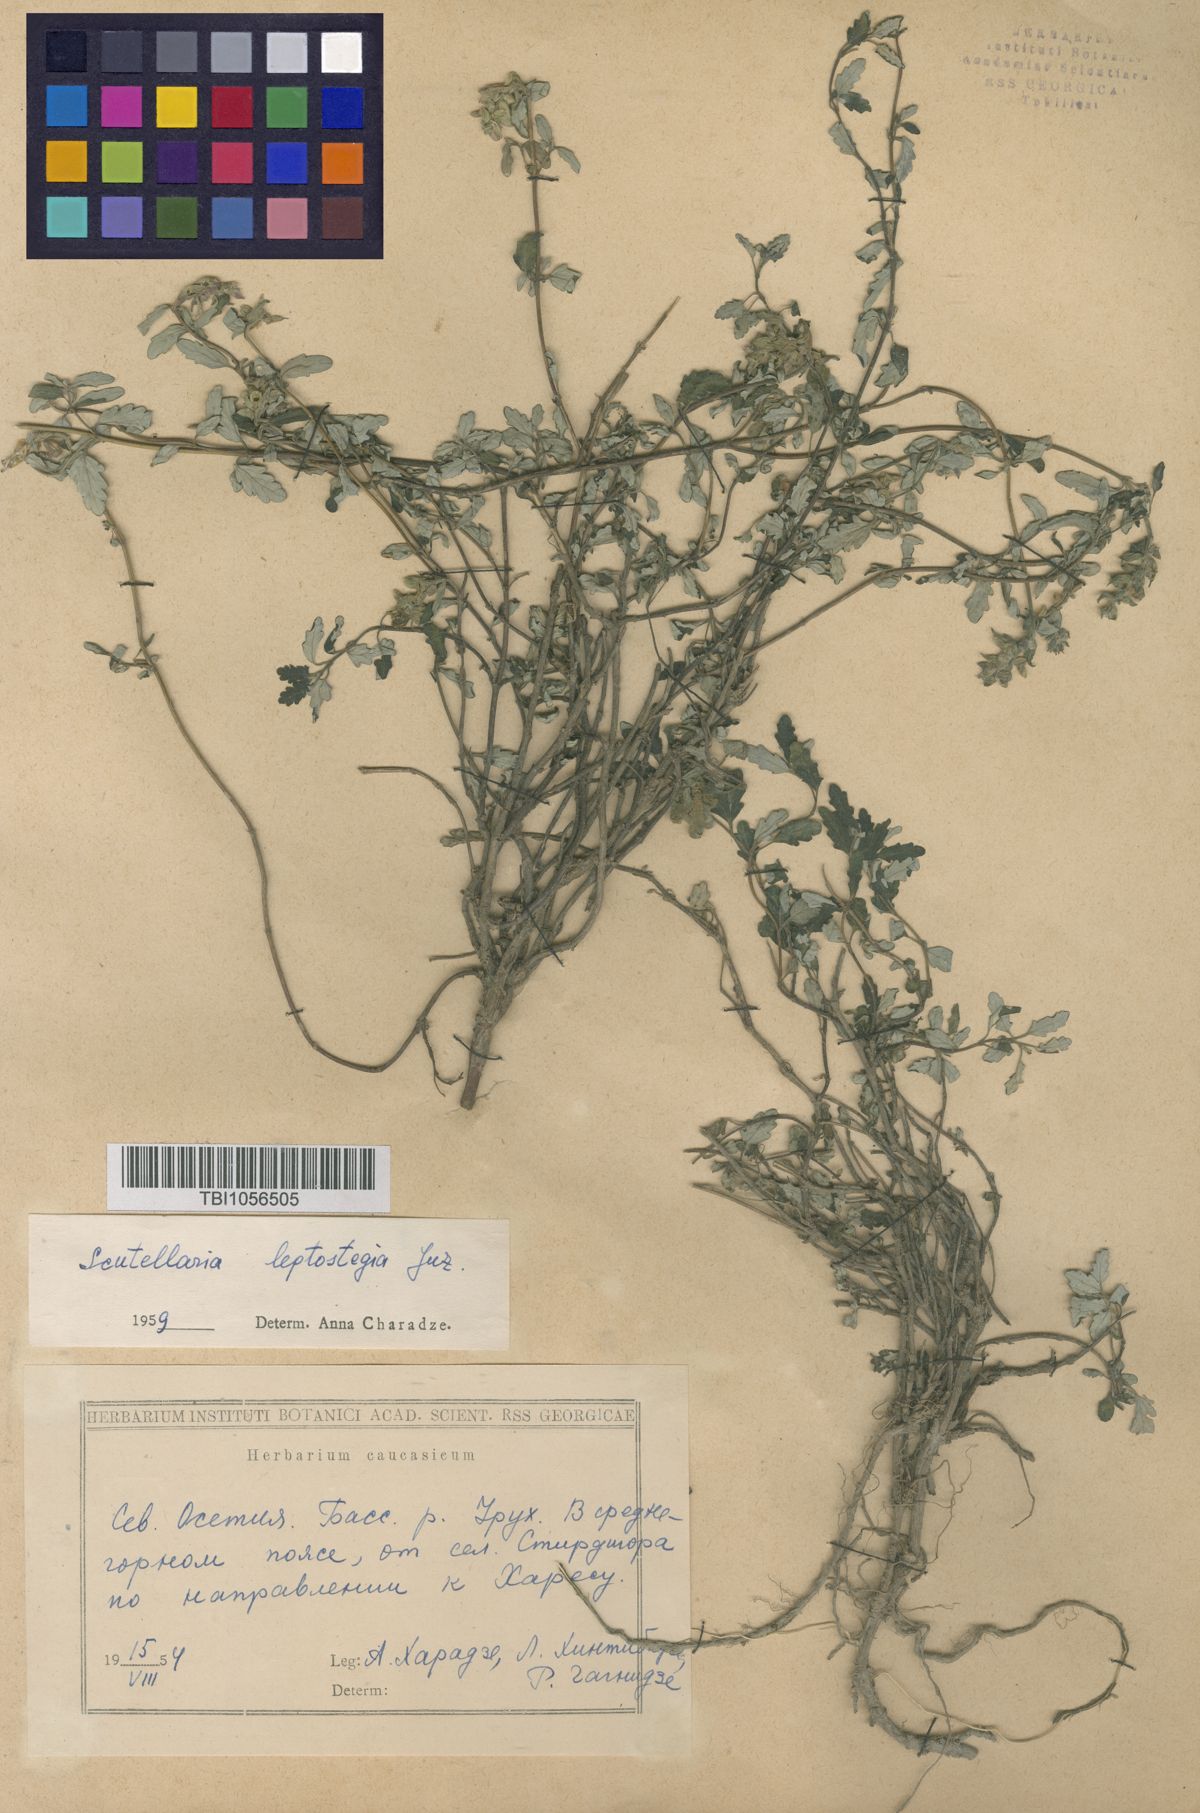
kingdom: Plantae
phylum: Tracheophyta
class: Magnoliopsida
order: Lamiales
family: Lamiaceae
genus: Scutellaria
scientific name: Scutellaria leptostegia
